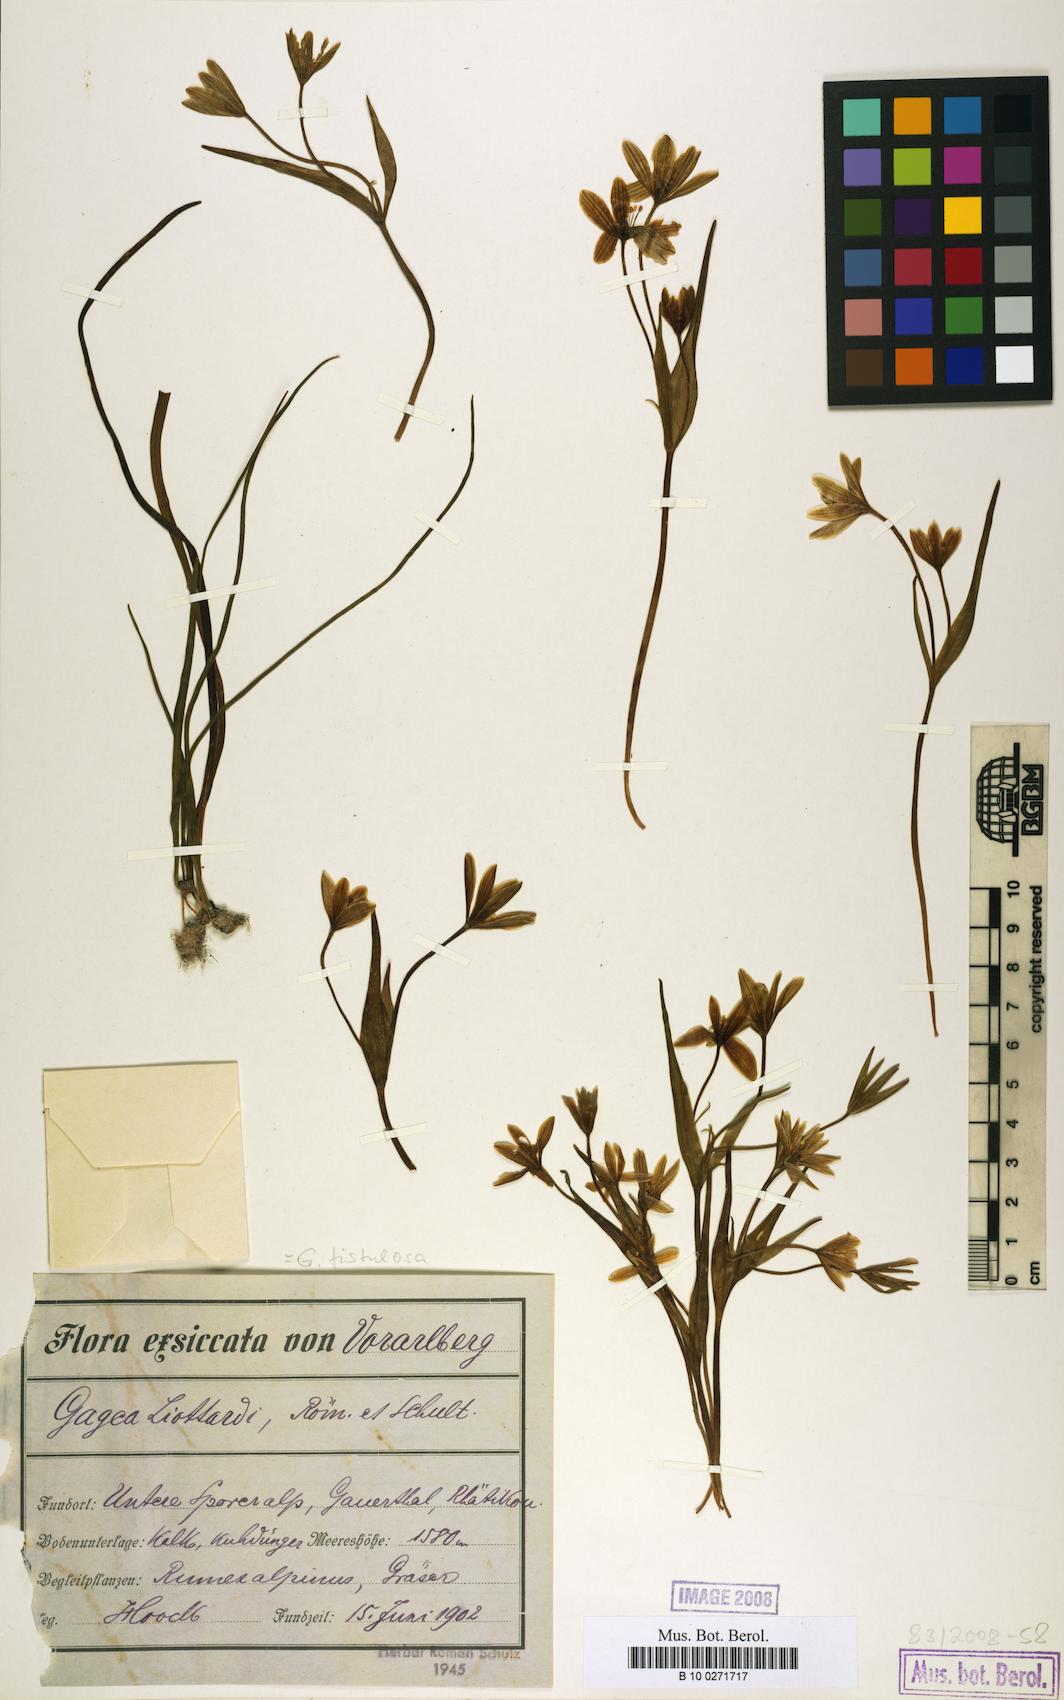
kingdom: Plantae
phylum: Tracheophyta
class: Liliopsida
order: Liliales
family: Liliaceae
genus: Gagea
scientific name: Gagea bohemica
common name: Early star-of-bethlehem
